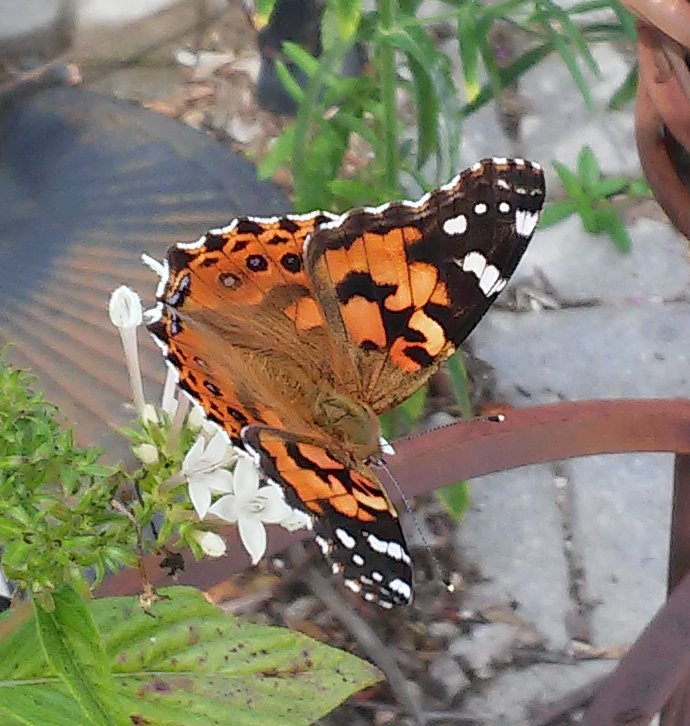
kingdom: Animalia
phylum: Arthropoda
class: Insecta
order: Lepidoptera
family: Nymphalidae
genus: Vanessa
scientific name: Vanessa cardui
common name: Painted Lady
